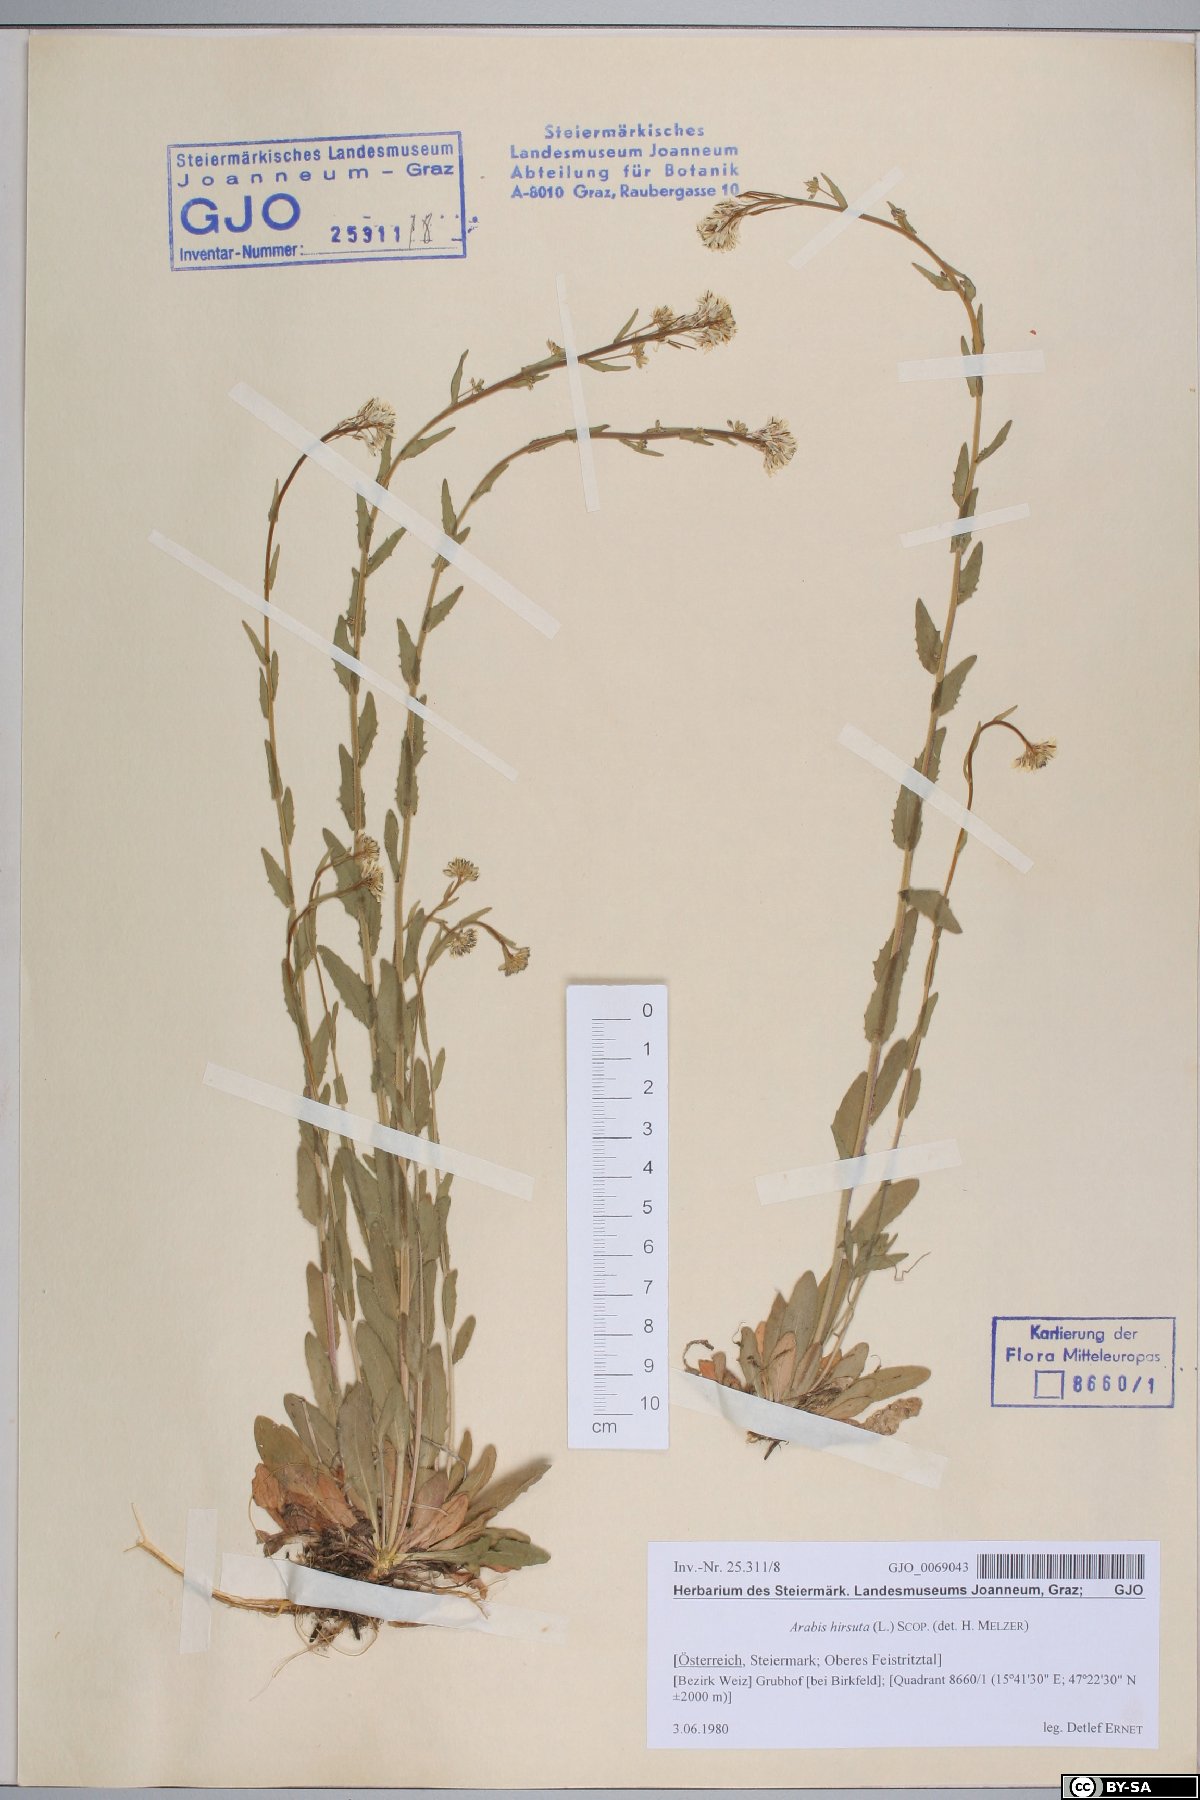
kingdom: Plantae
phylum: Tracheophyta
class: Magnoliopsida
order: Brassicales
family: Brassicaceae
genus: Arabis
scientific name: Arabis hirsuta
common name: Hairy rock-cress
